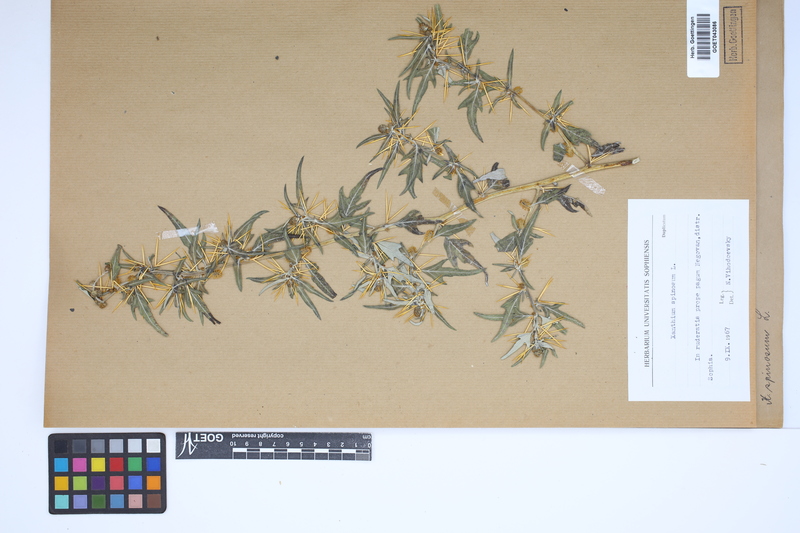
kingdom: Plantae
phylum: Tracheophyta
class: Magnoliopsida
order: Asterales
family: Asteraceae
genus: Xanthium
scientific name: Xanthium spinosum
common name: Spiny cocklebur
